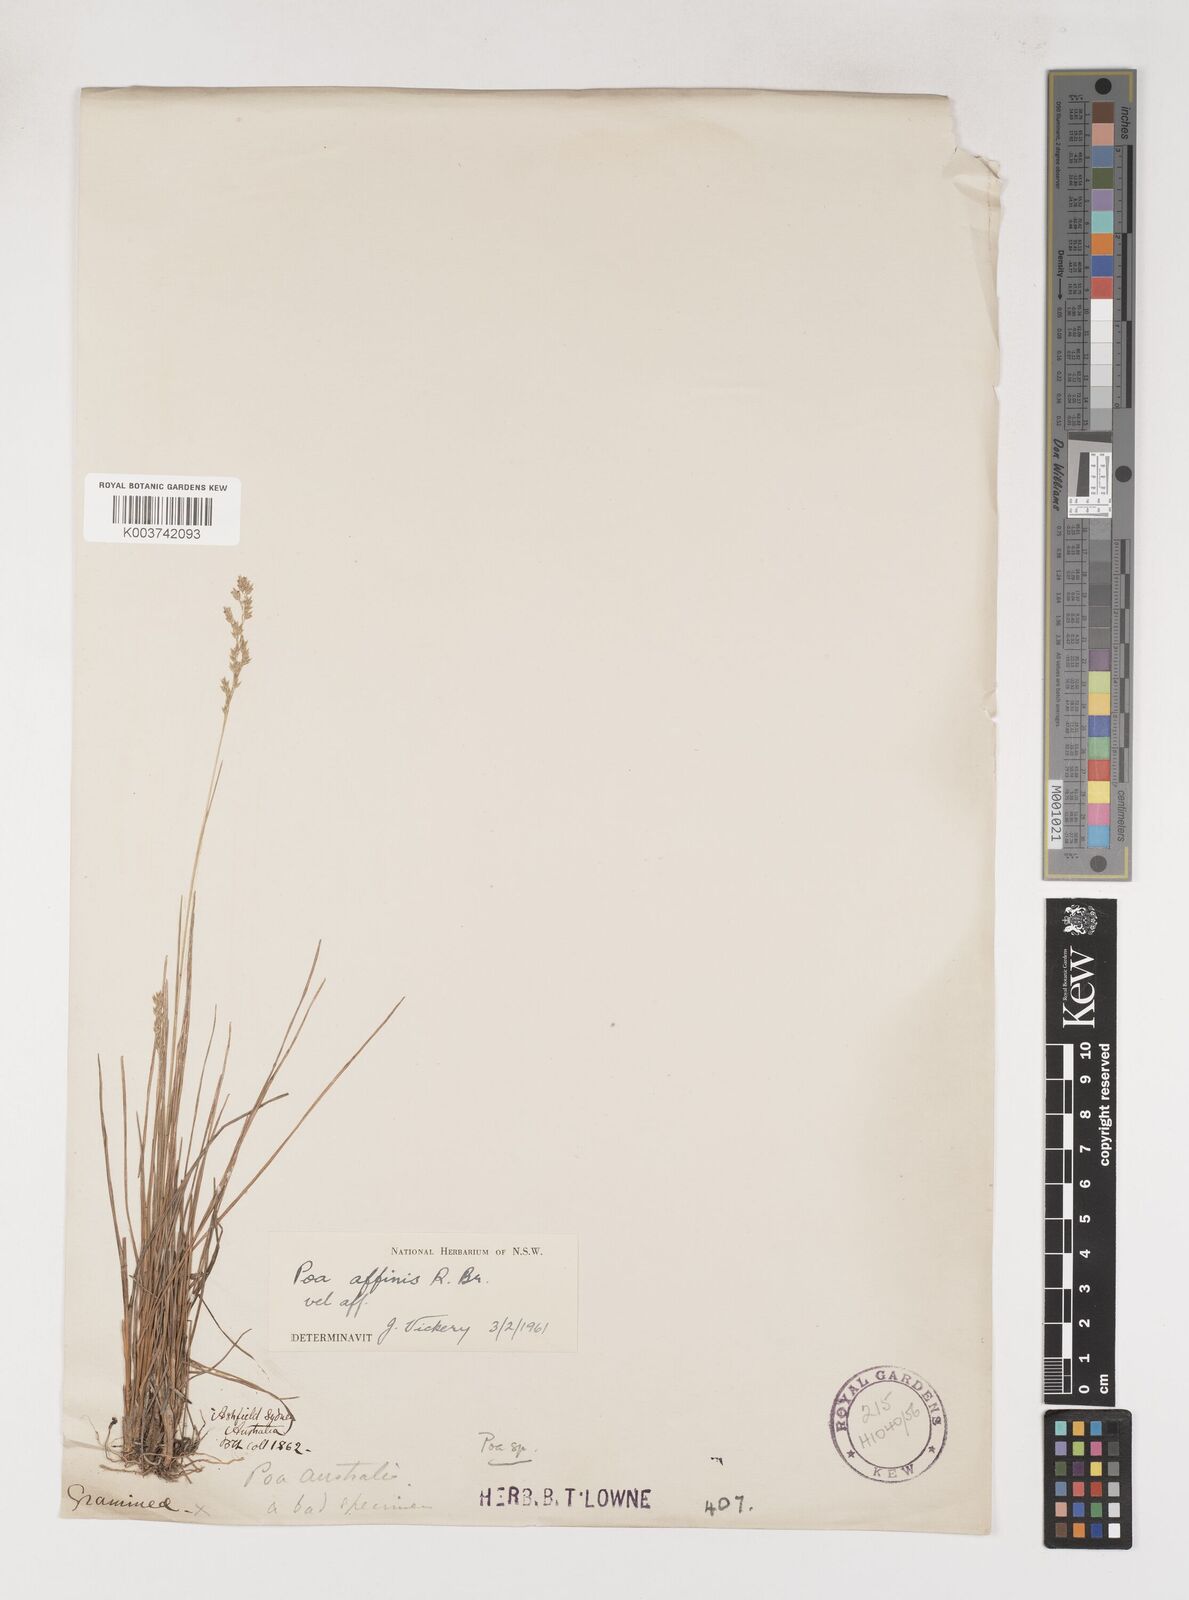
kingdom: Plantae
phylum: Tracheophyta
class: Liliopsida
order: Poales
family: Poaceae
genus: Poa
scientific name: Poa affinis
